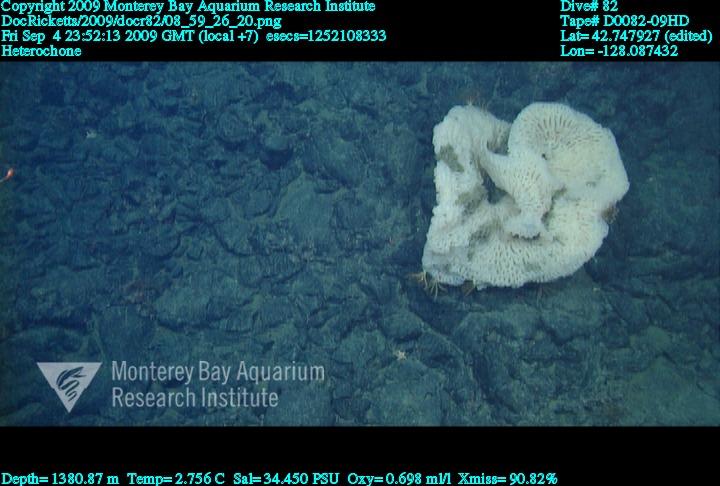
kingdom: Animalia
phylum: Porifera
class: Hexactinellida
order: Sceptrulophora
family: Aphrocallistidae
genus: Heterochone
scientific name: Heterochone
